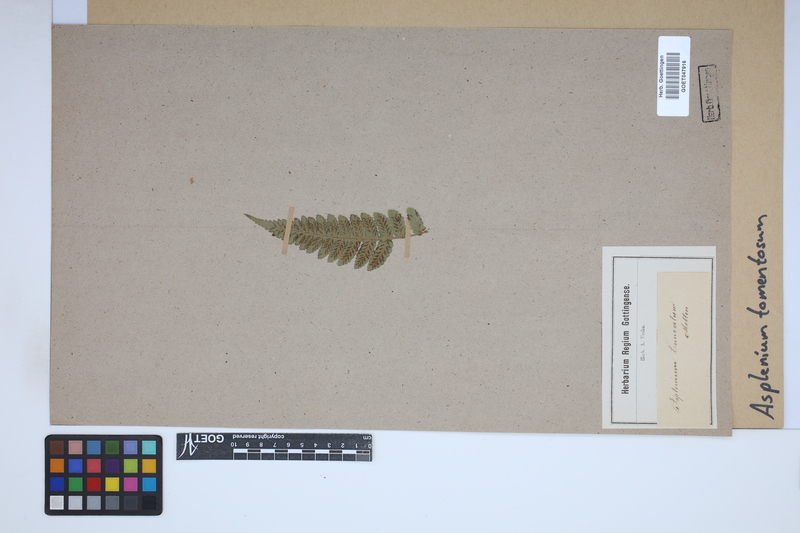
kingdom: Plantae
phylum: Tracheophyta
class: Polypodiopsida
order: Polypodiales
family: Athyriaceae
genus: Deparia
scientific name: Deparia petersenii
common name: Japanese false spleenwort
